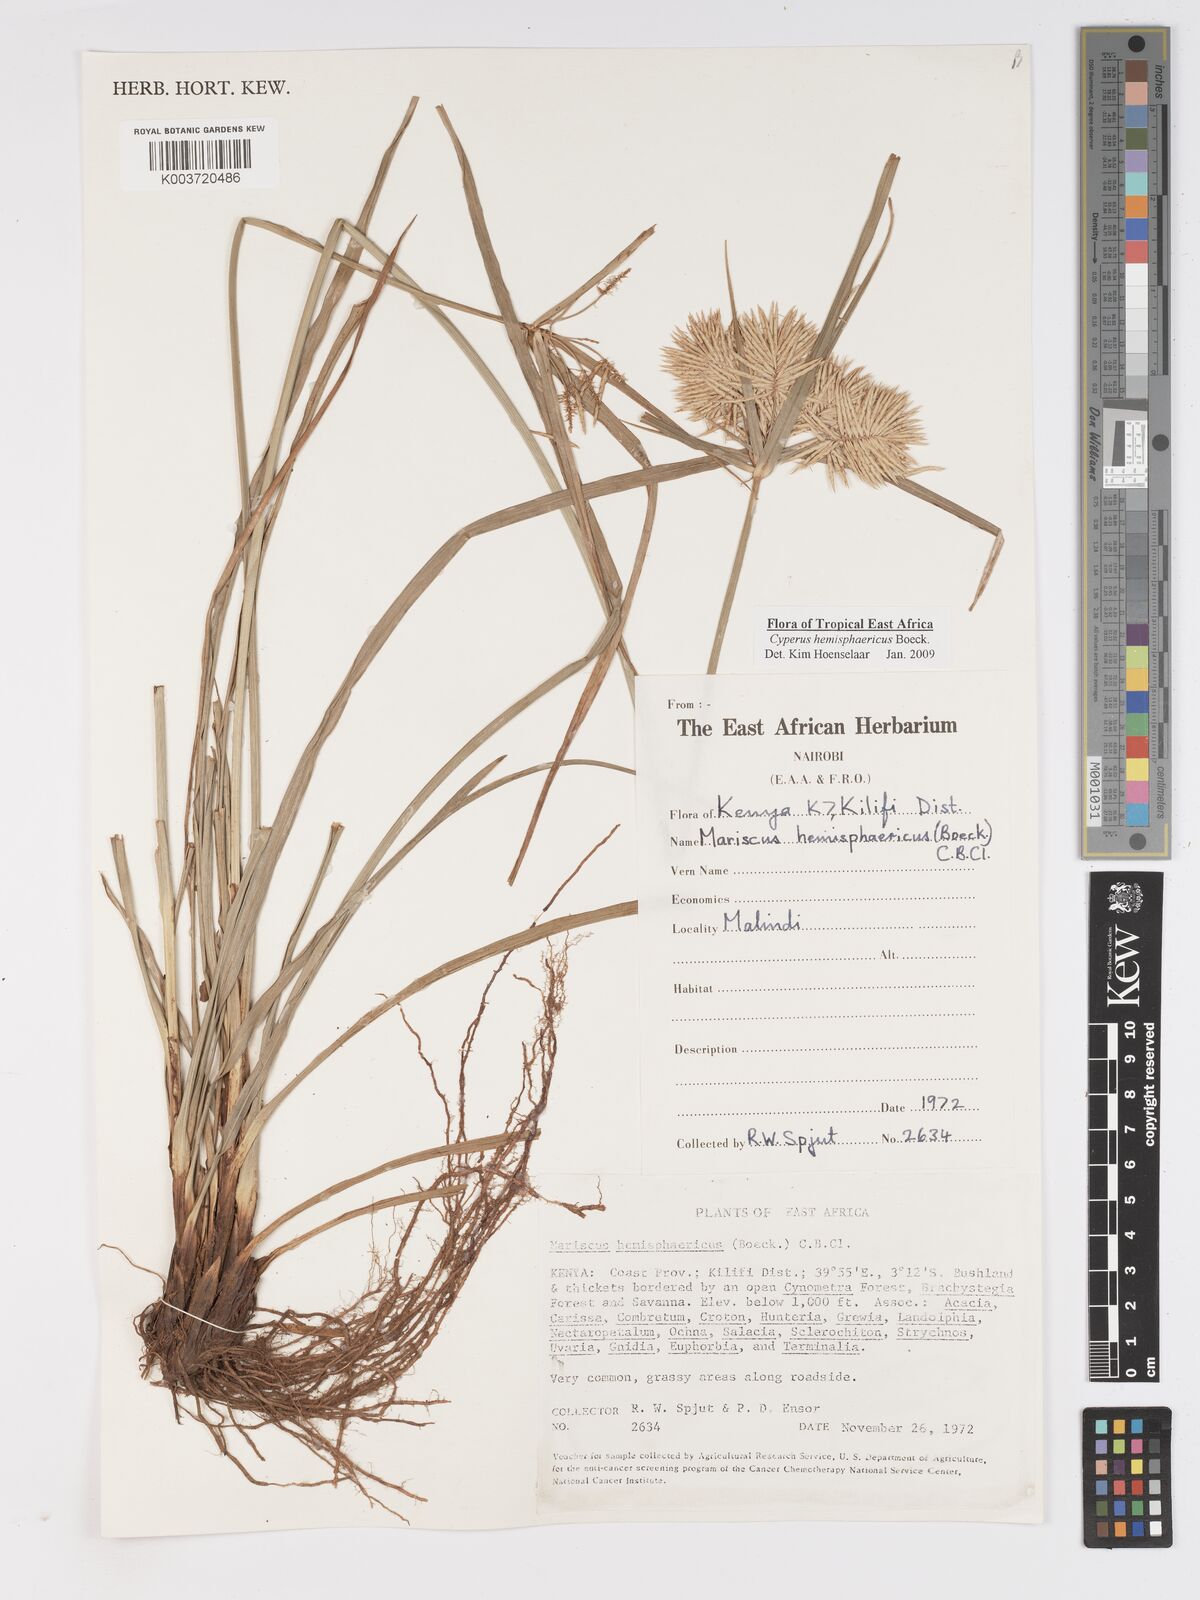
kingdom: Plantae
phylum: Tracheophyta
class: Liliopsida
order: Poales
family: Cyperaceae
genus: Cyperus
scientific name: Cyperus hemisphaericus
